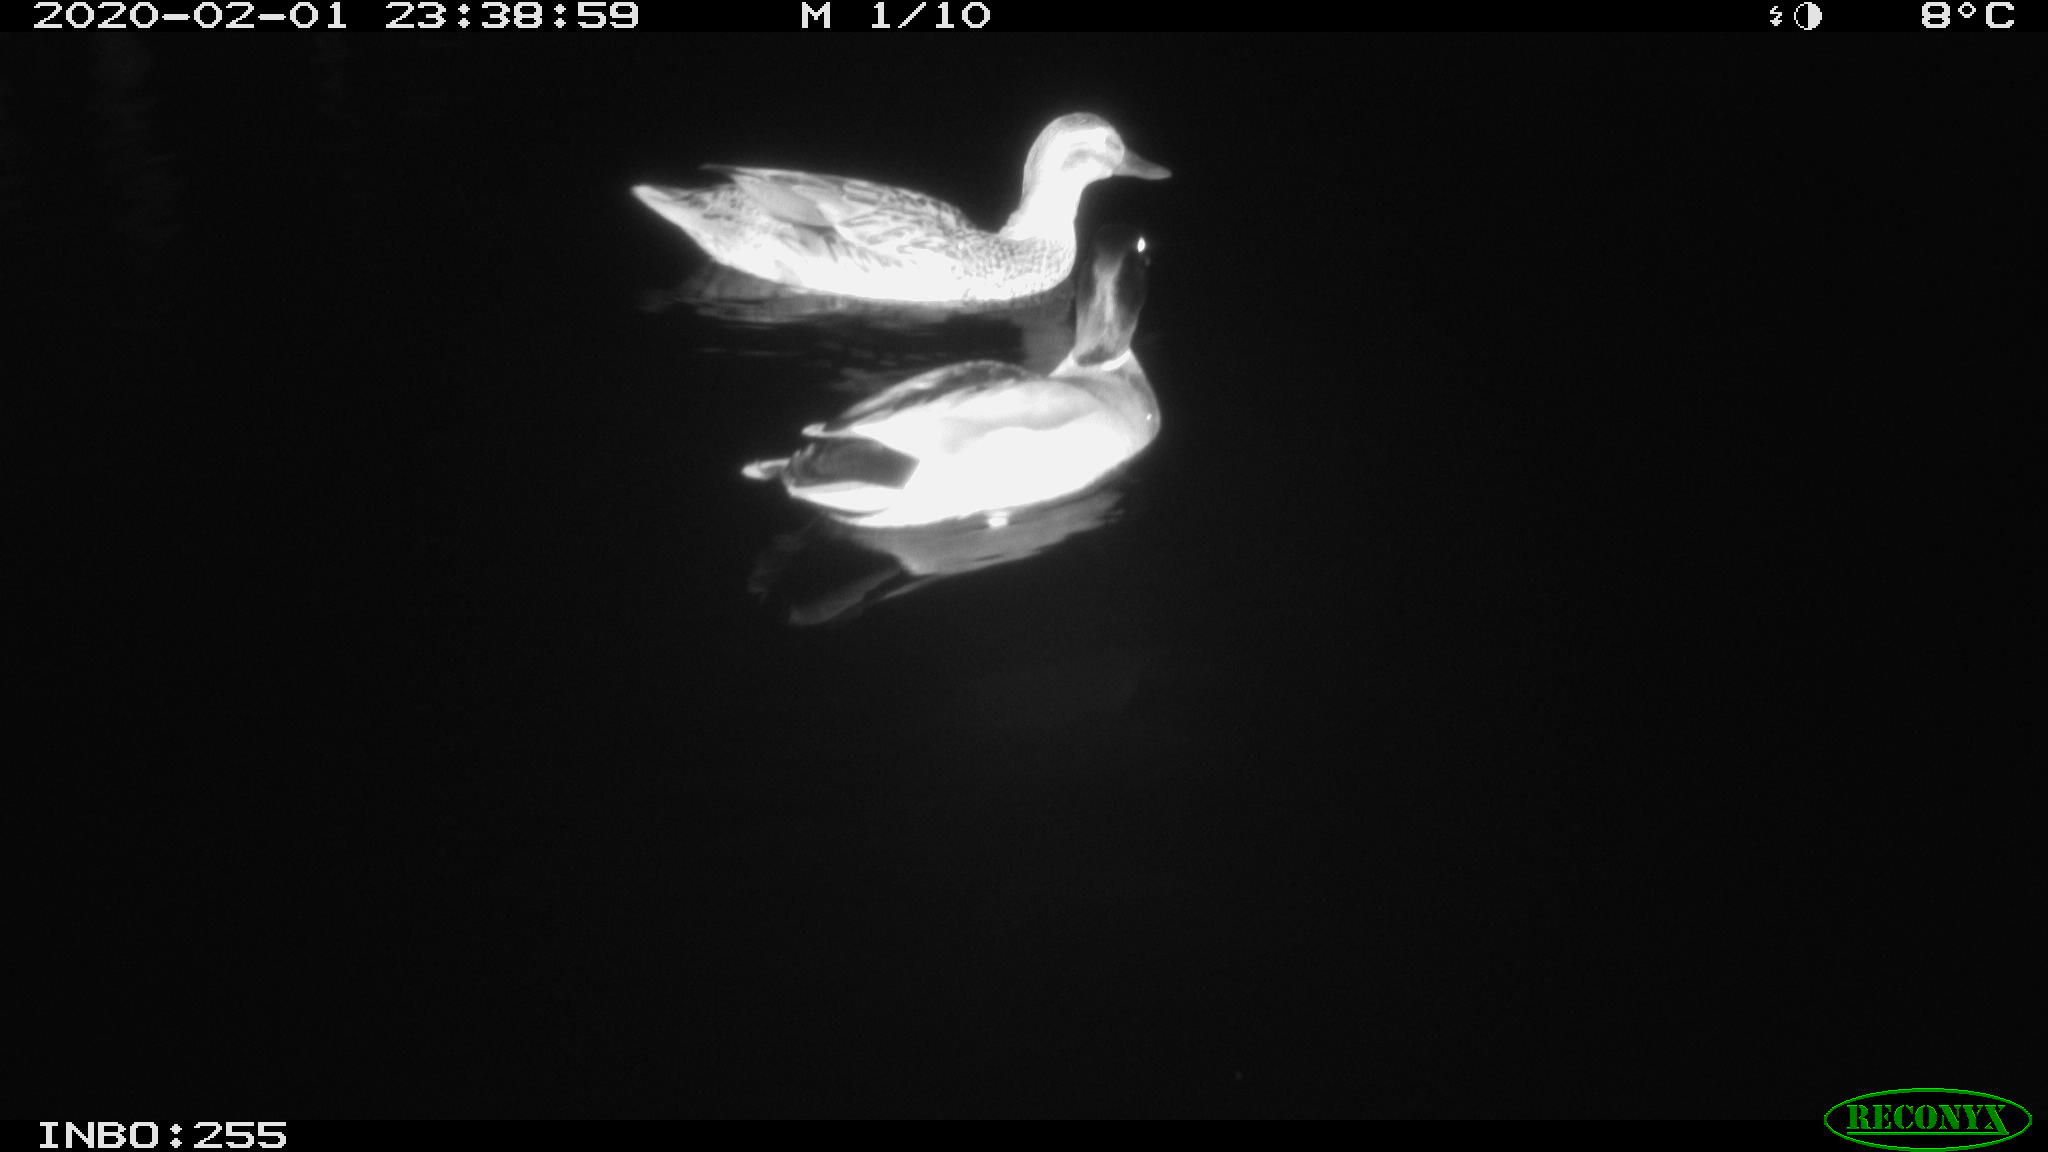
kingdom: Animalia
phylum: Chordata
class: Aves
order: Anseriformes
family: Anatidae
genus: Anas
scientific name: Anas platyrhynchos
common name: Mallard
